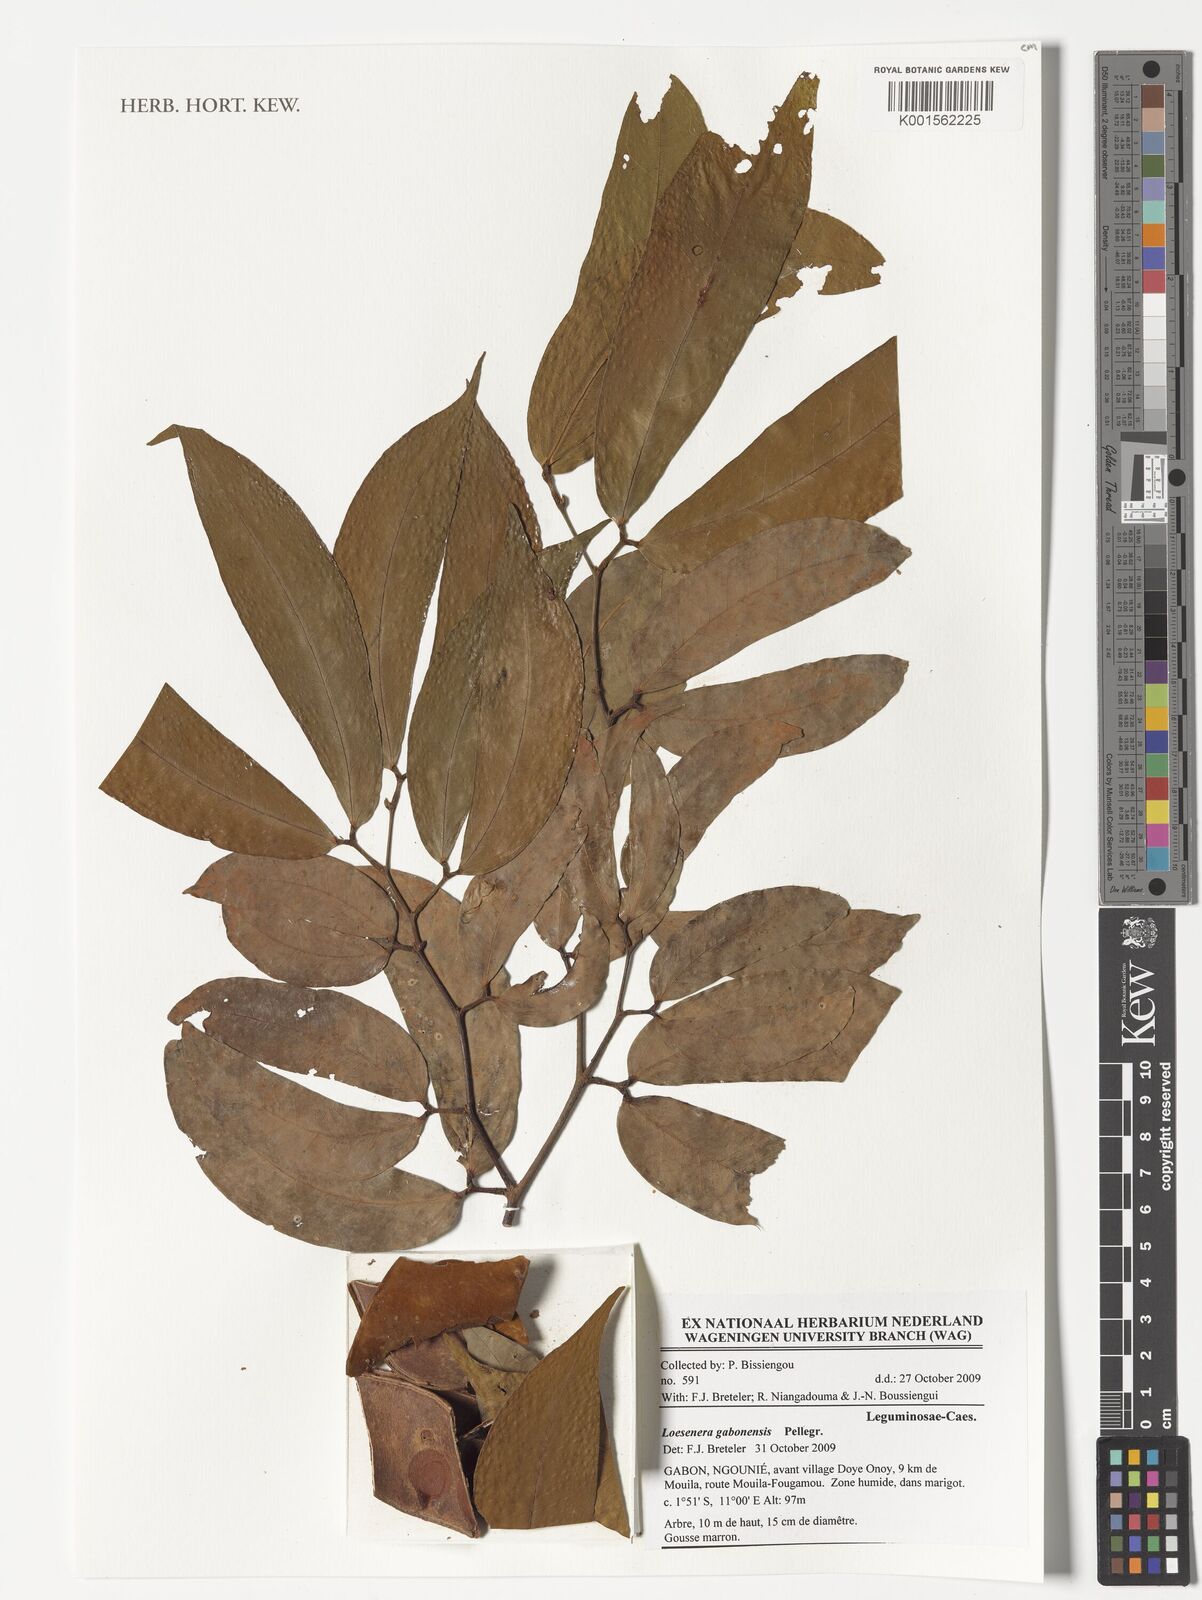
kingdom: Plantae
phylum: Tracheophyta
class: Magnoliopsida
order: Fabales
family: Fabaceae
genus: Loesenera
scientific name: Loesenera gabonensis
